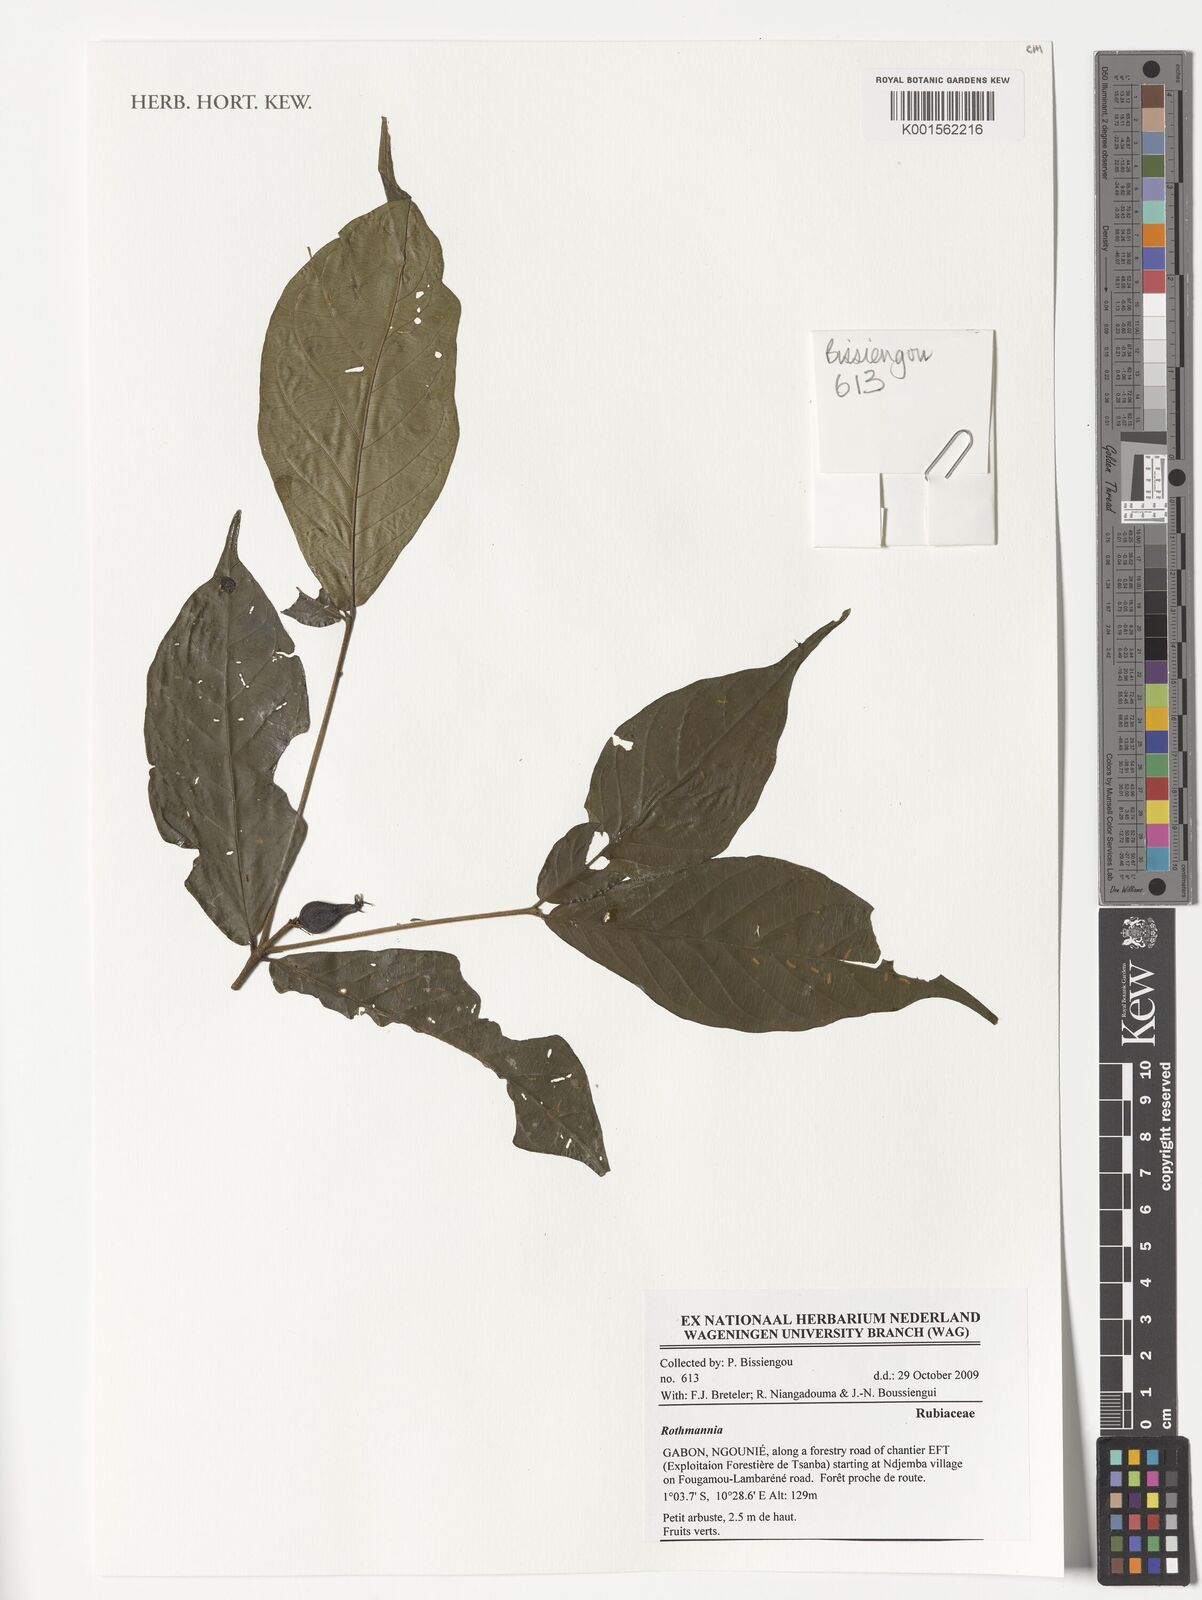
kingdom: Plantae
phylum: Tracheophyta
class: Magnoliopsida
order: Gentianales
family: Rubiaceae
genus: Rothmannia
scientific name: Rothmannia
